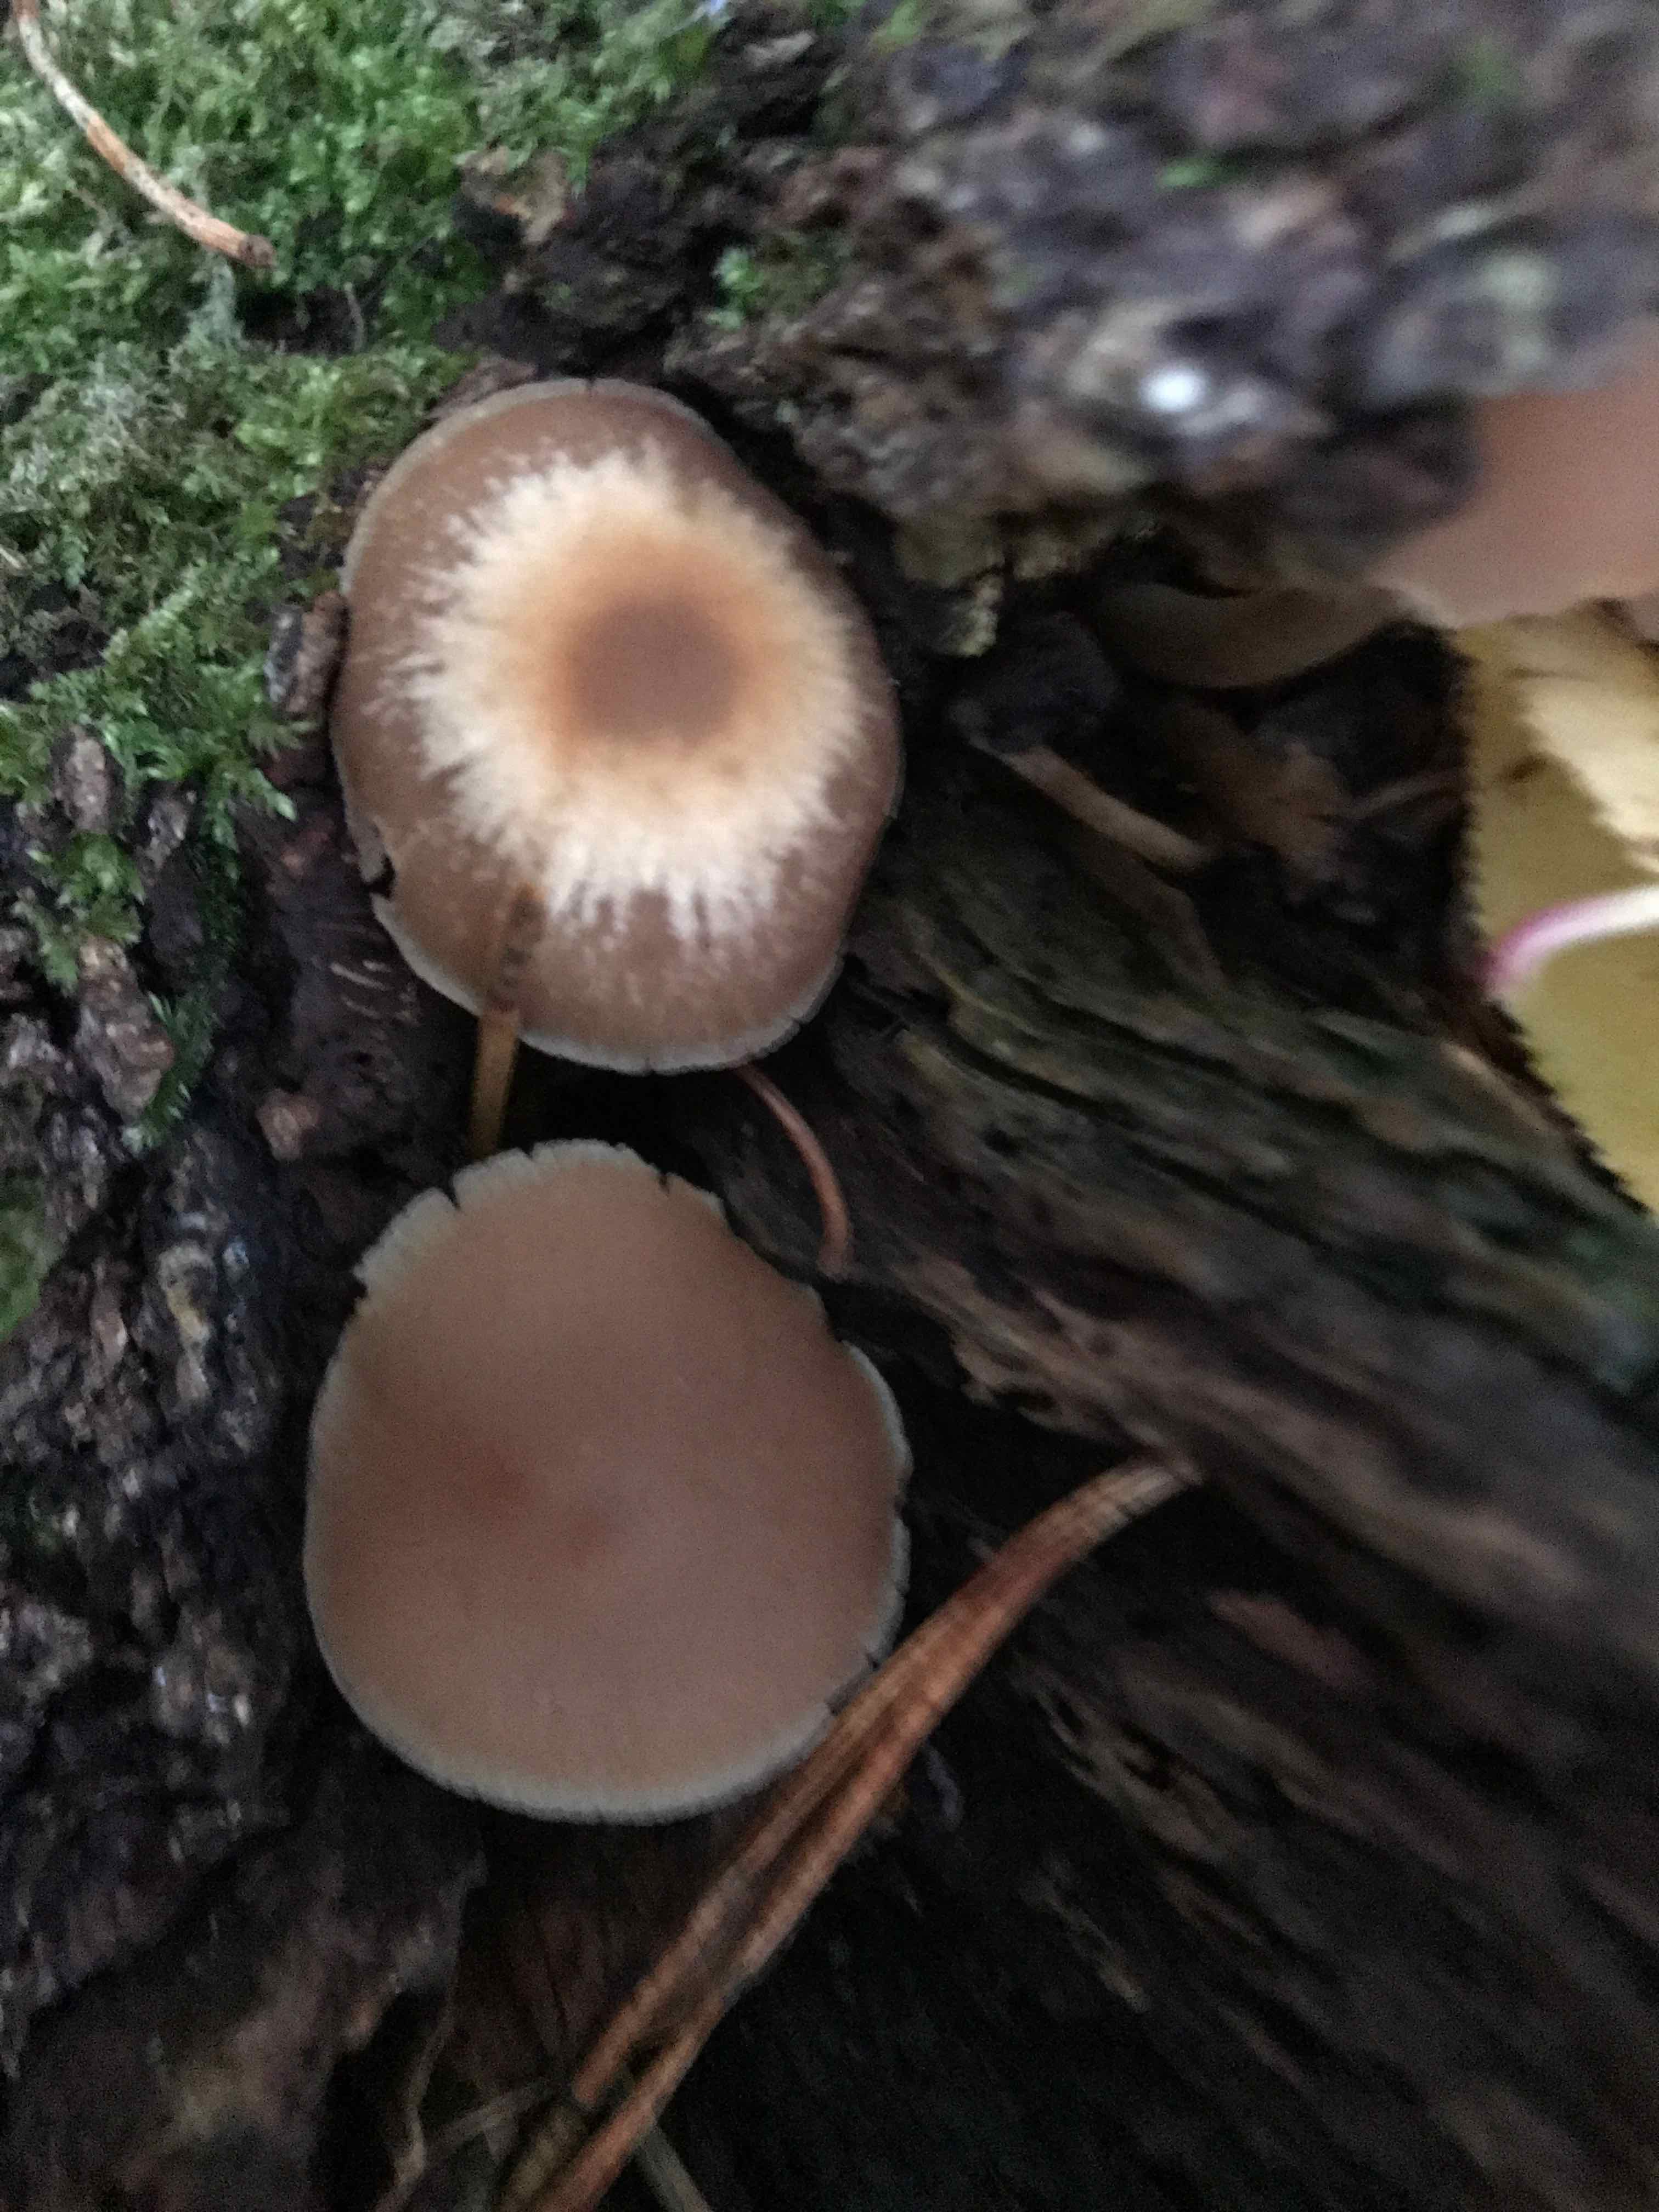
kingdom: Fungi
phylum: Basidiomycota
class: Agaricomycetes
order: Agaricales
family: Psathyrellaceae
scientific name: Psathyrellaceae
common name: mørkhatfamilien
